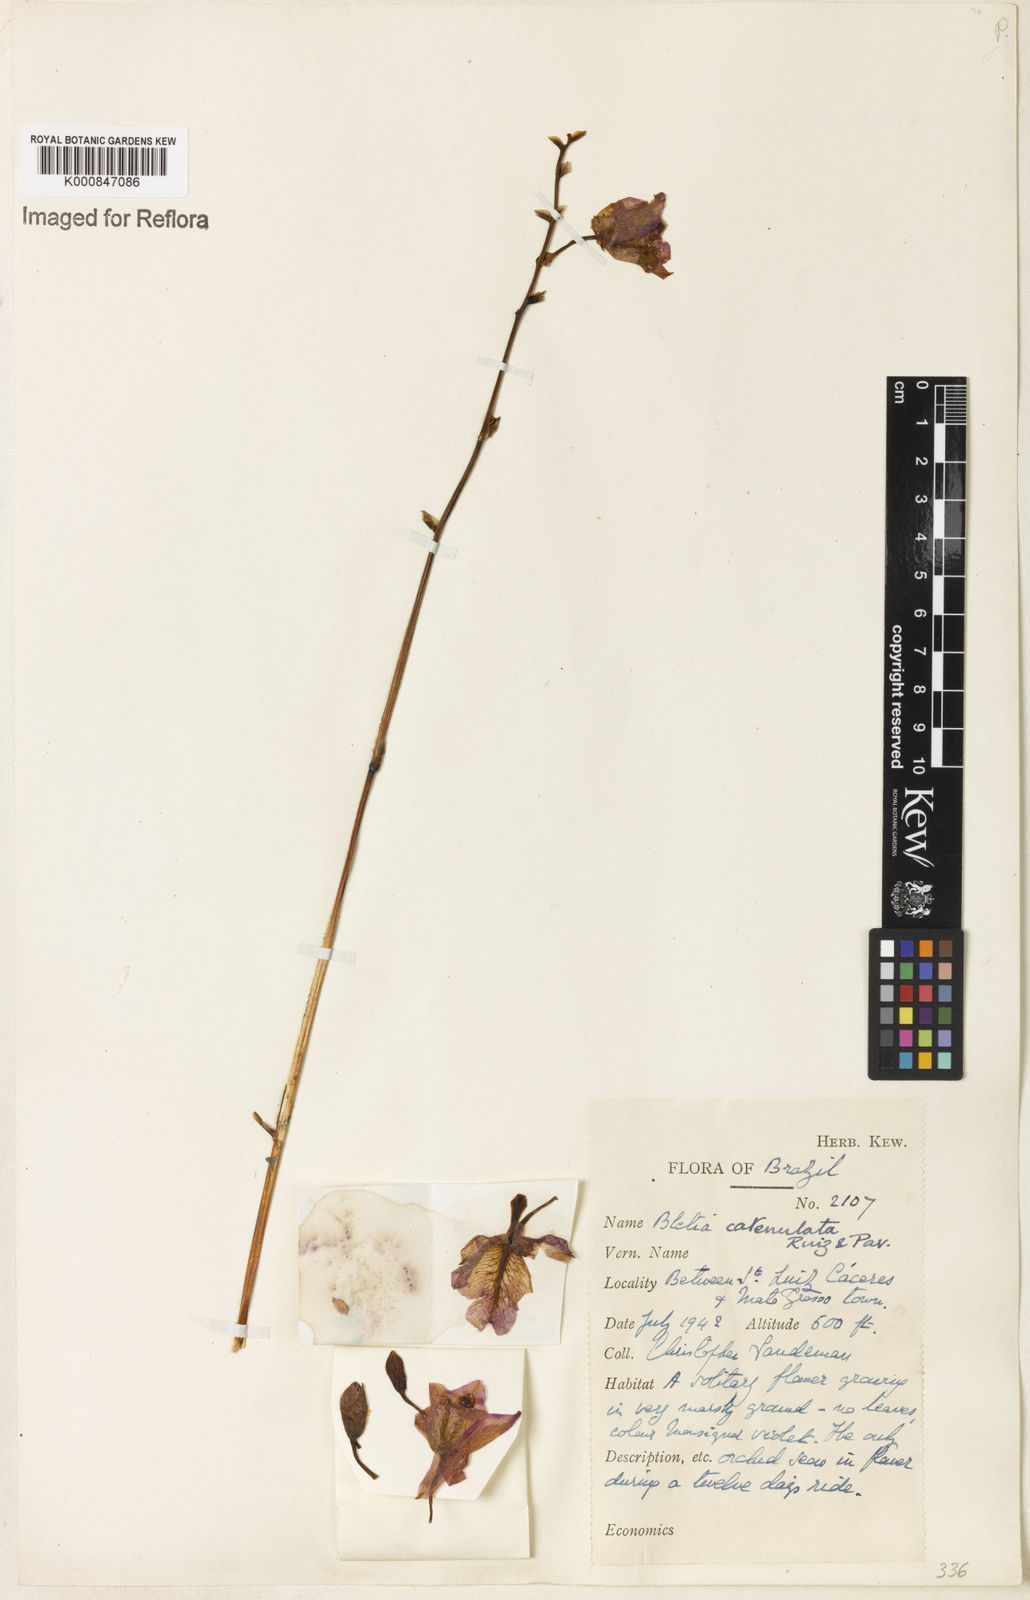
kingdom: Plantae
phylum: Tracheophyta
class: Liliopsida
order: Asparagales
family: Orchidaceae
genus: Bletia
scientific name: Bletia
